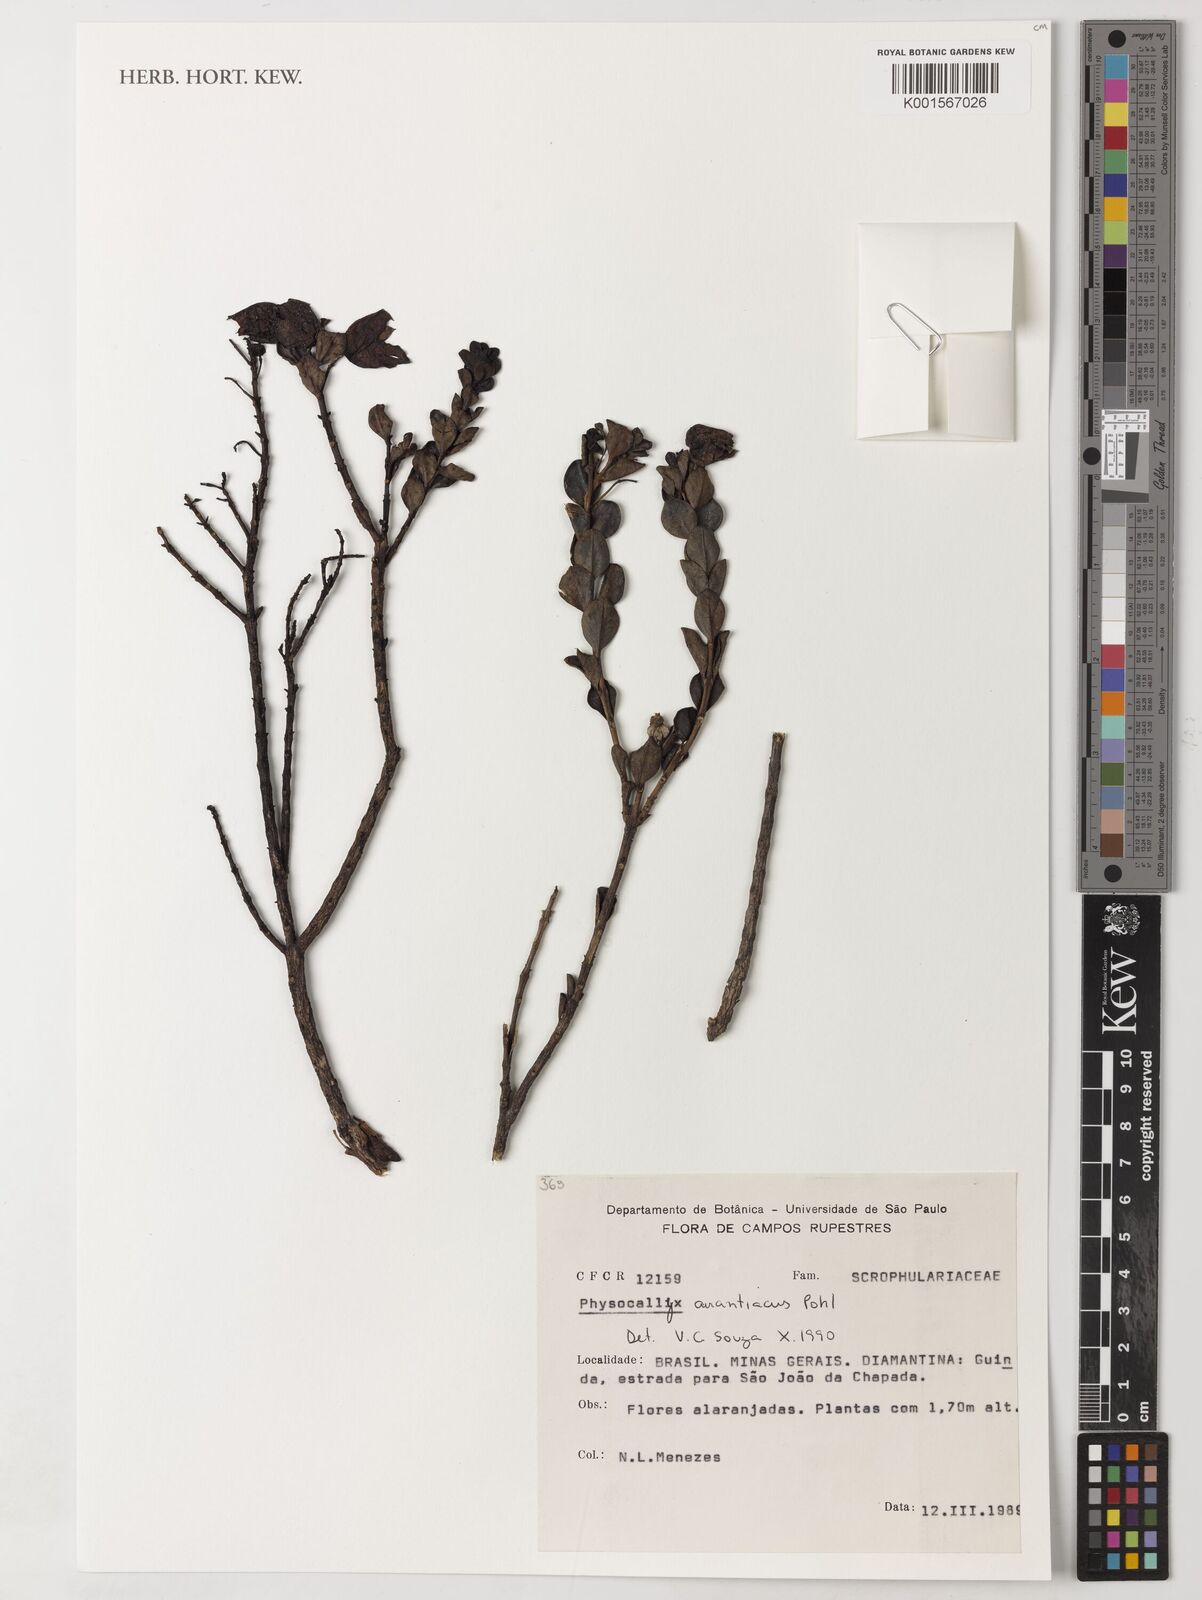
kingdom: Plantae
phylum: Tracheophyta
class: Magnoliopsida
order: Lamiales
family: Orobanchaceae
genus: Physocalyx
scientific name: Physocalyx aurantiacus
